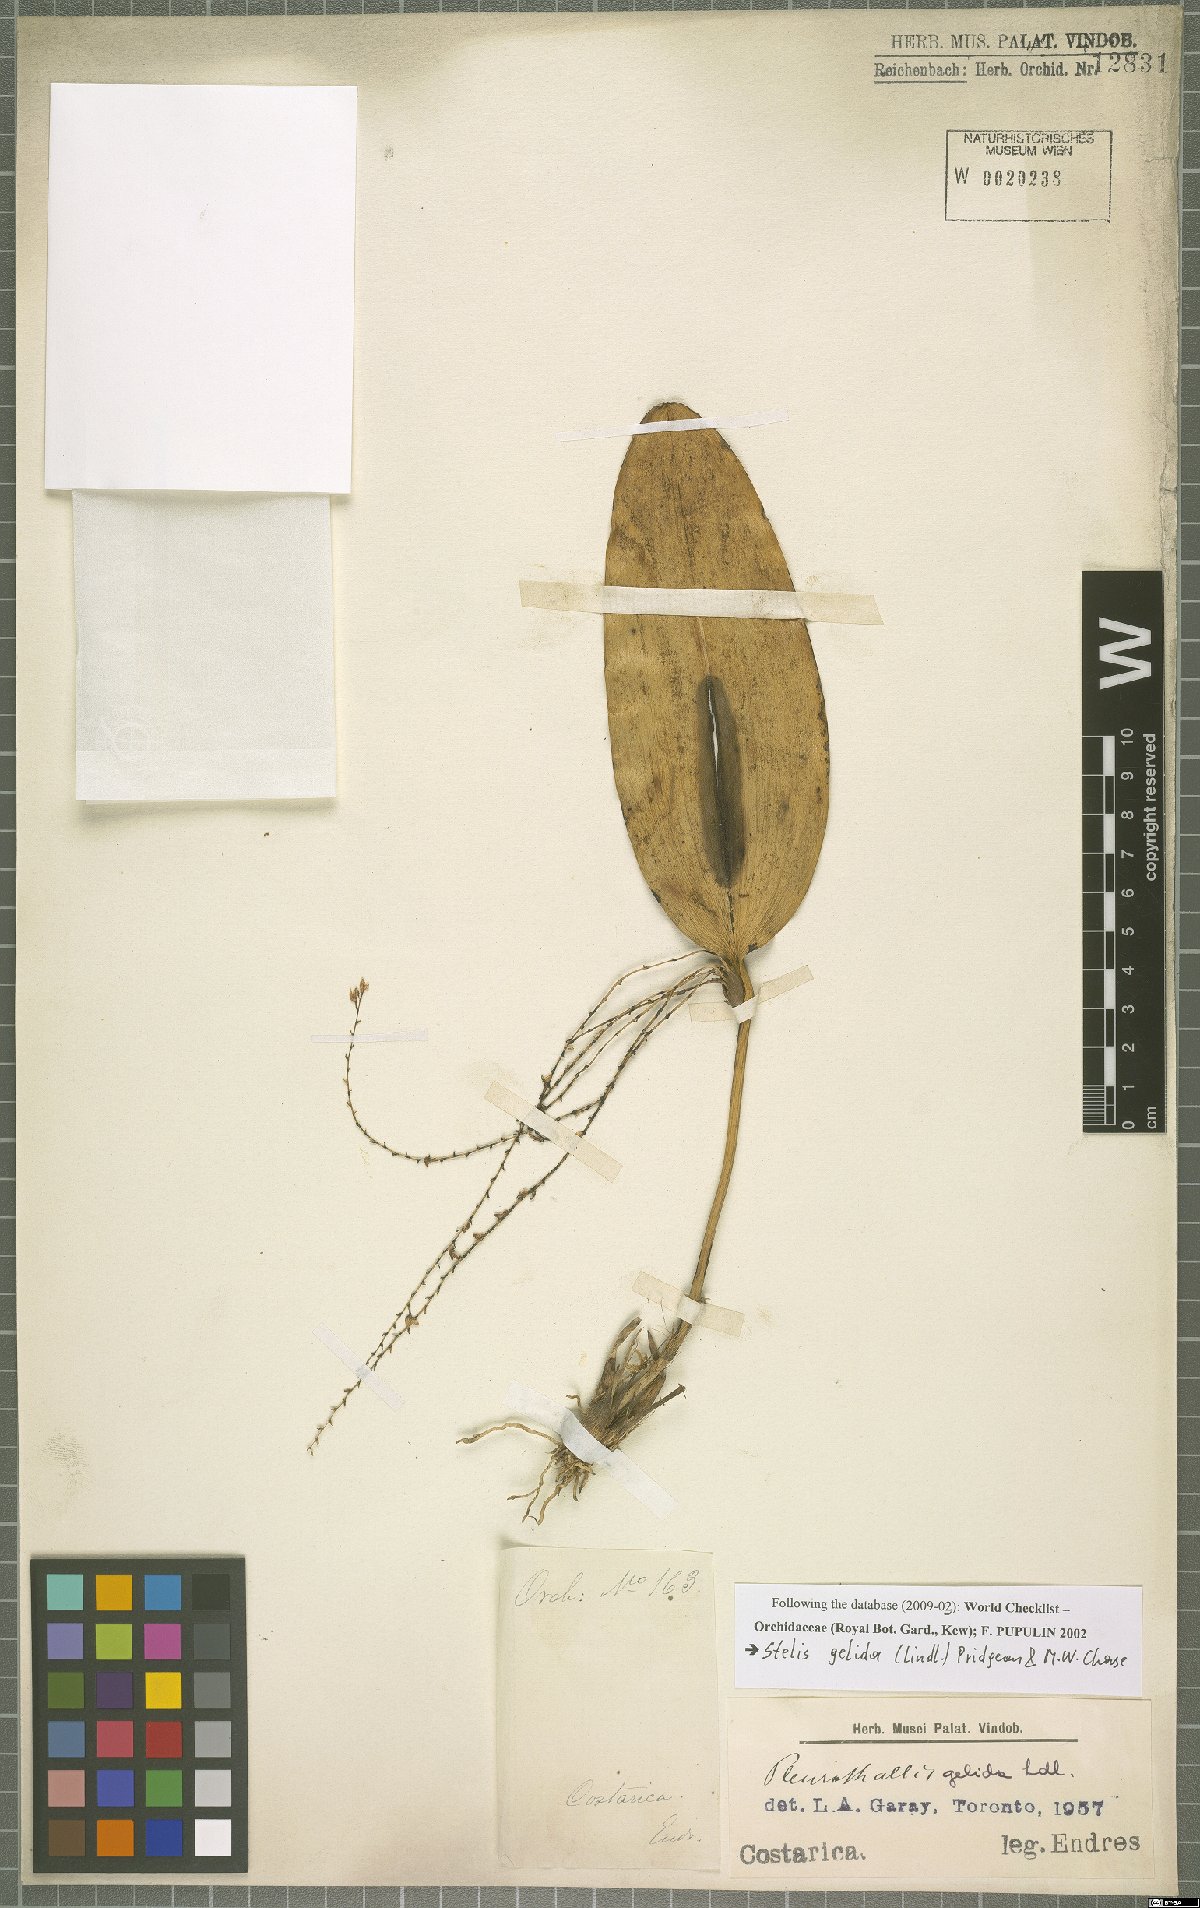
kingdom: Plantae
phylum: Tracheophyta
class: Liliopsida
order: Asparagales
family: Orchidaceae
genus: Stelis
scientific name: Stelis gelida
